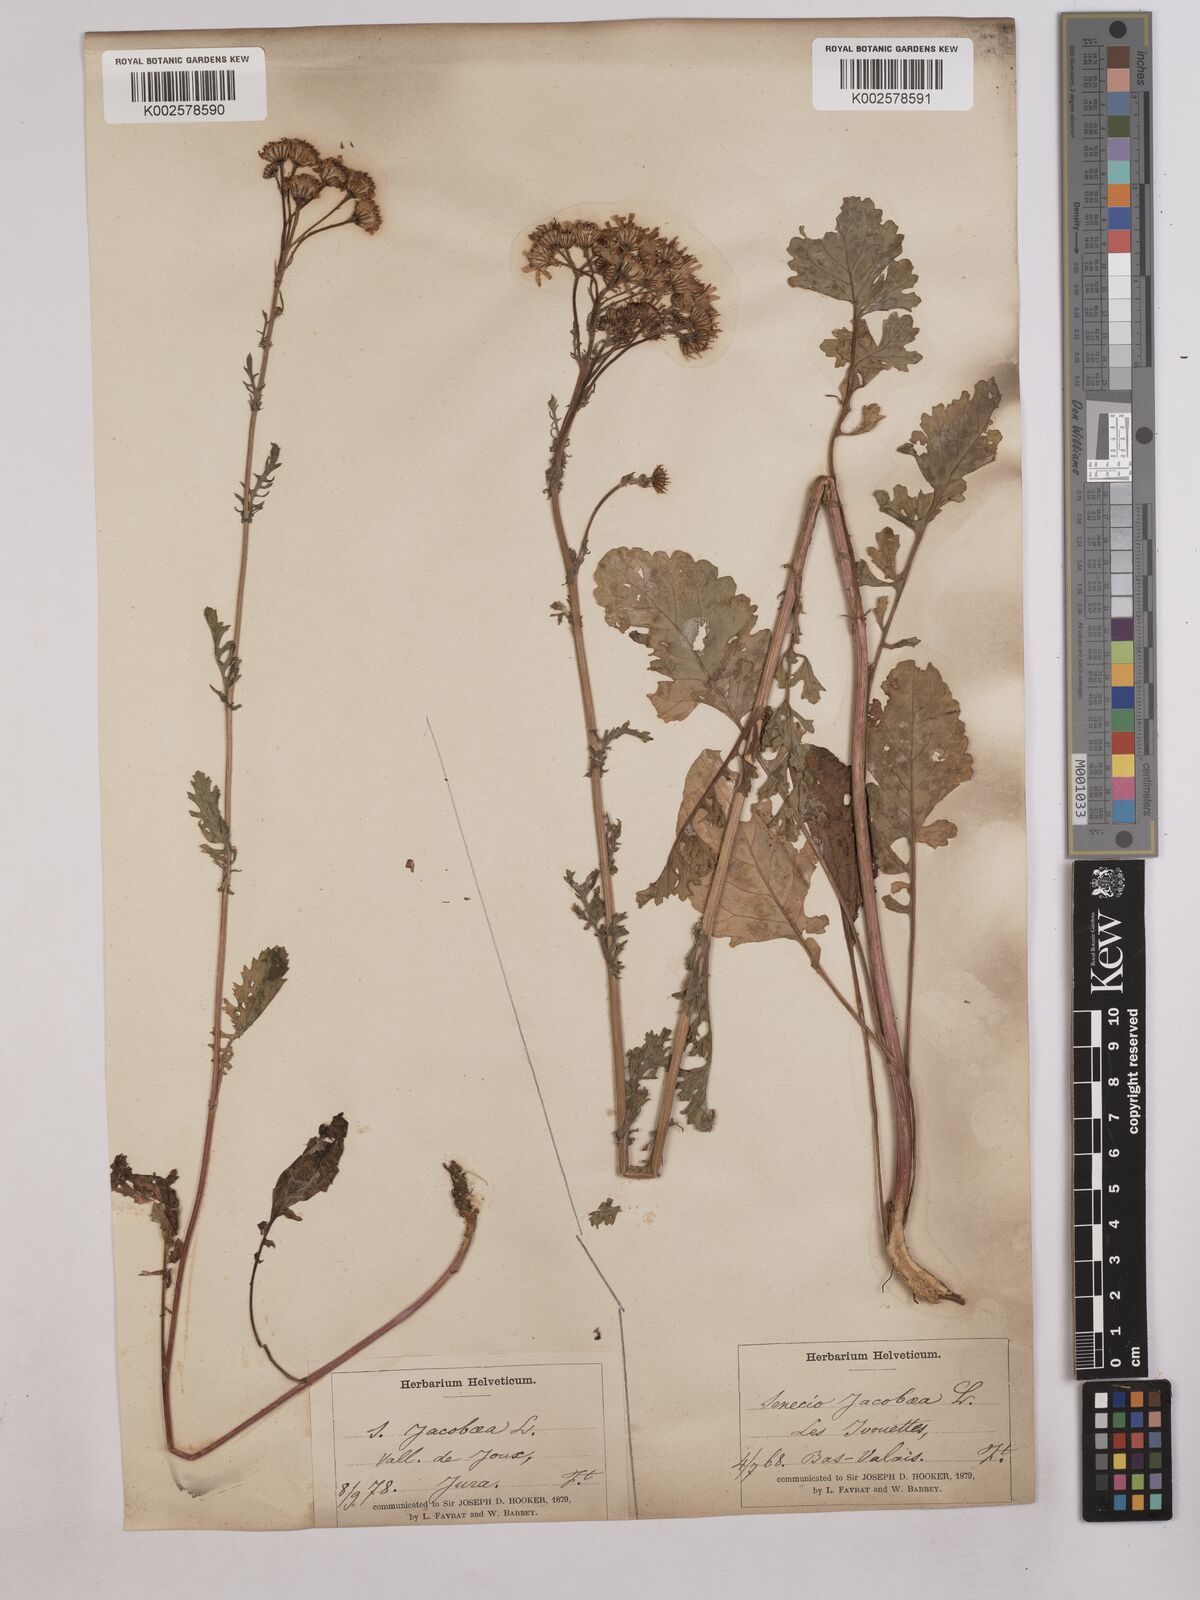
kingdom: Plantae
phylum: Tracheophyta
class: Magnoliopsida
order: Asterales
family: Asteraceae
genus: Jacobaea
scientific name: Jacobaea vulgaris
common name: Stinking willie
